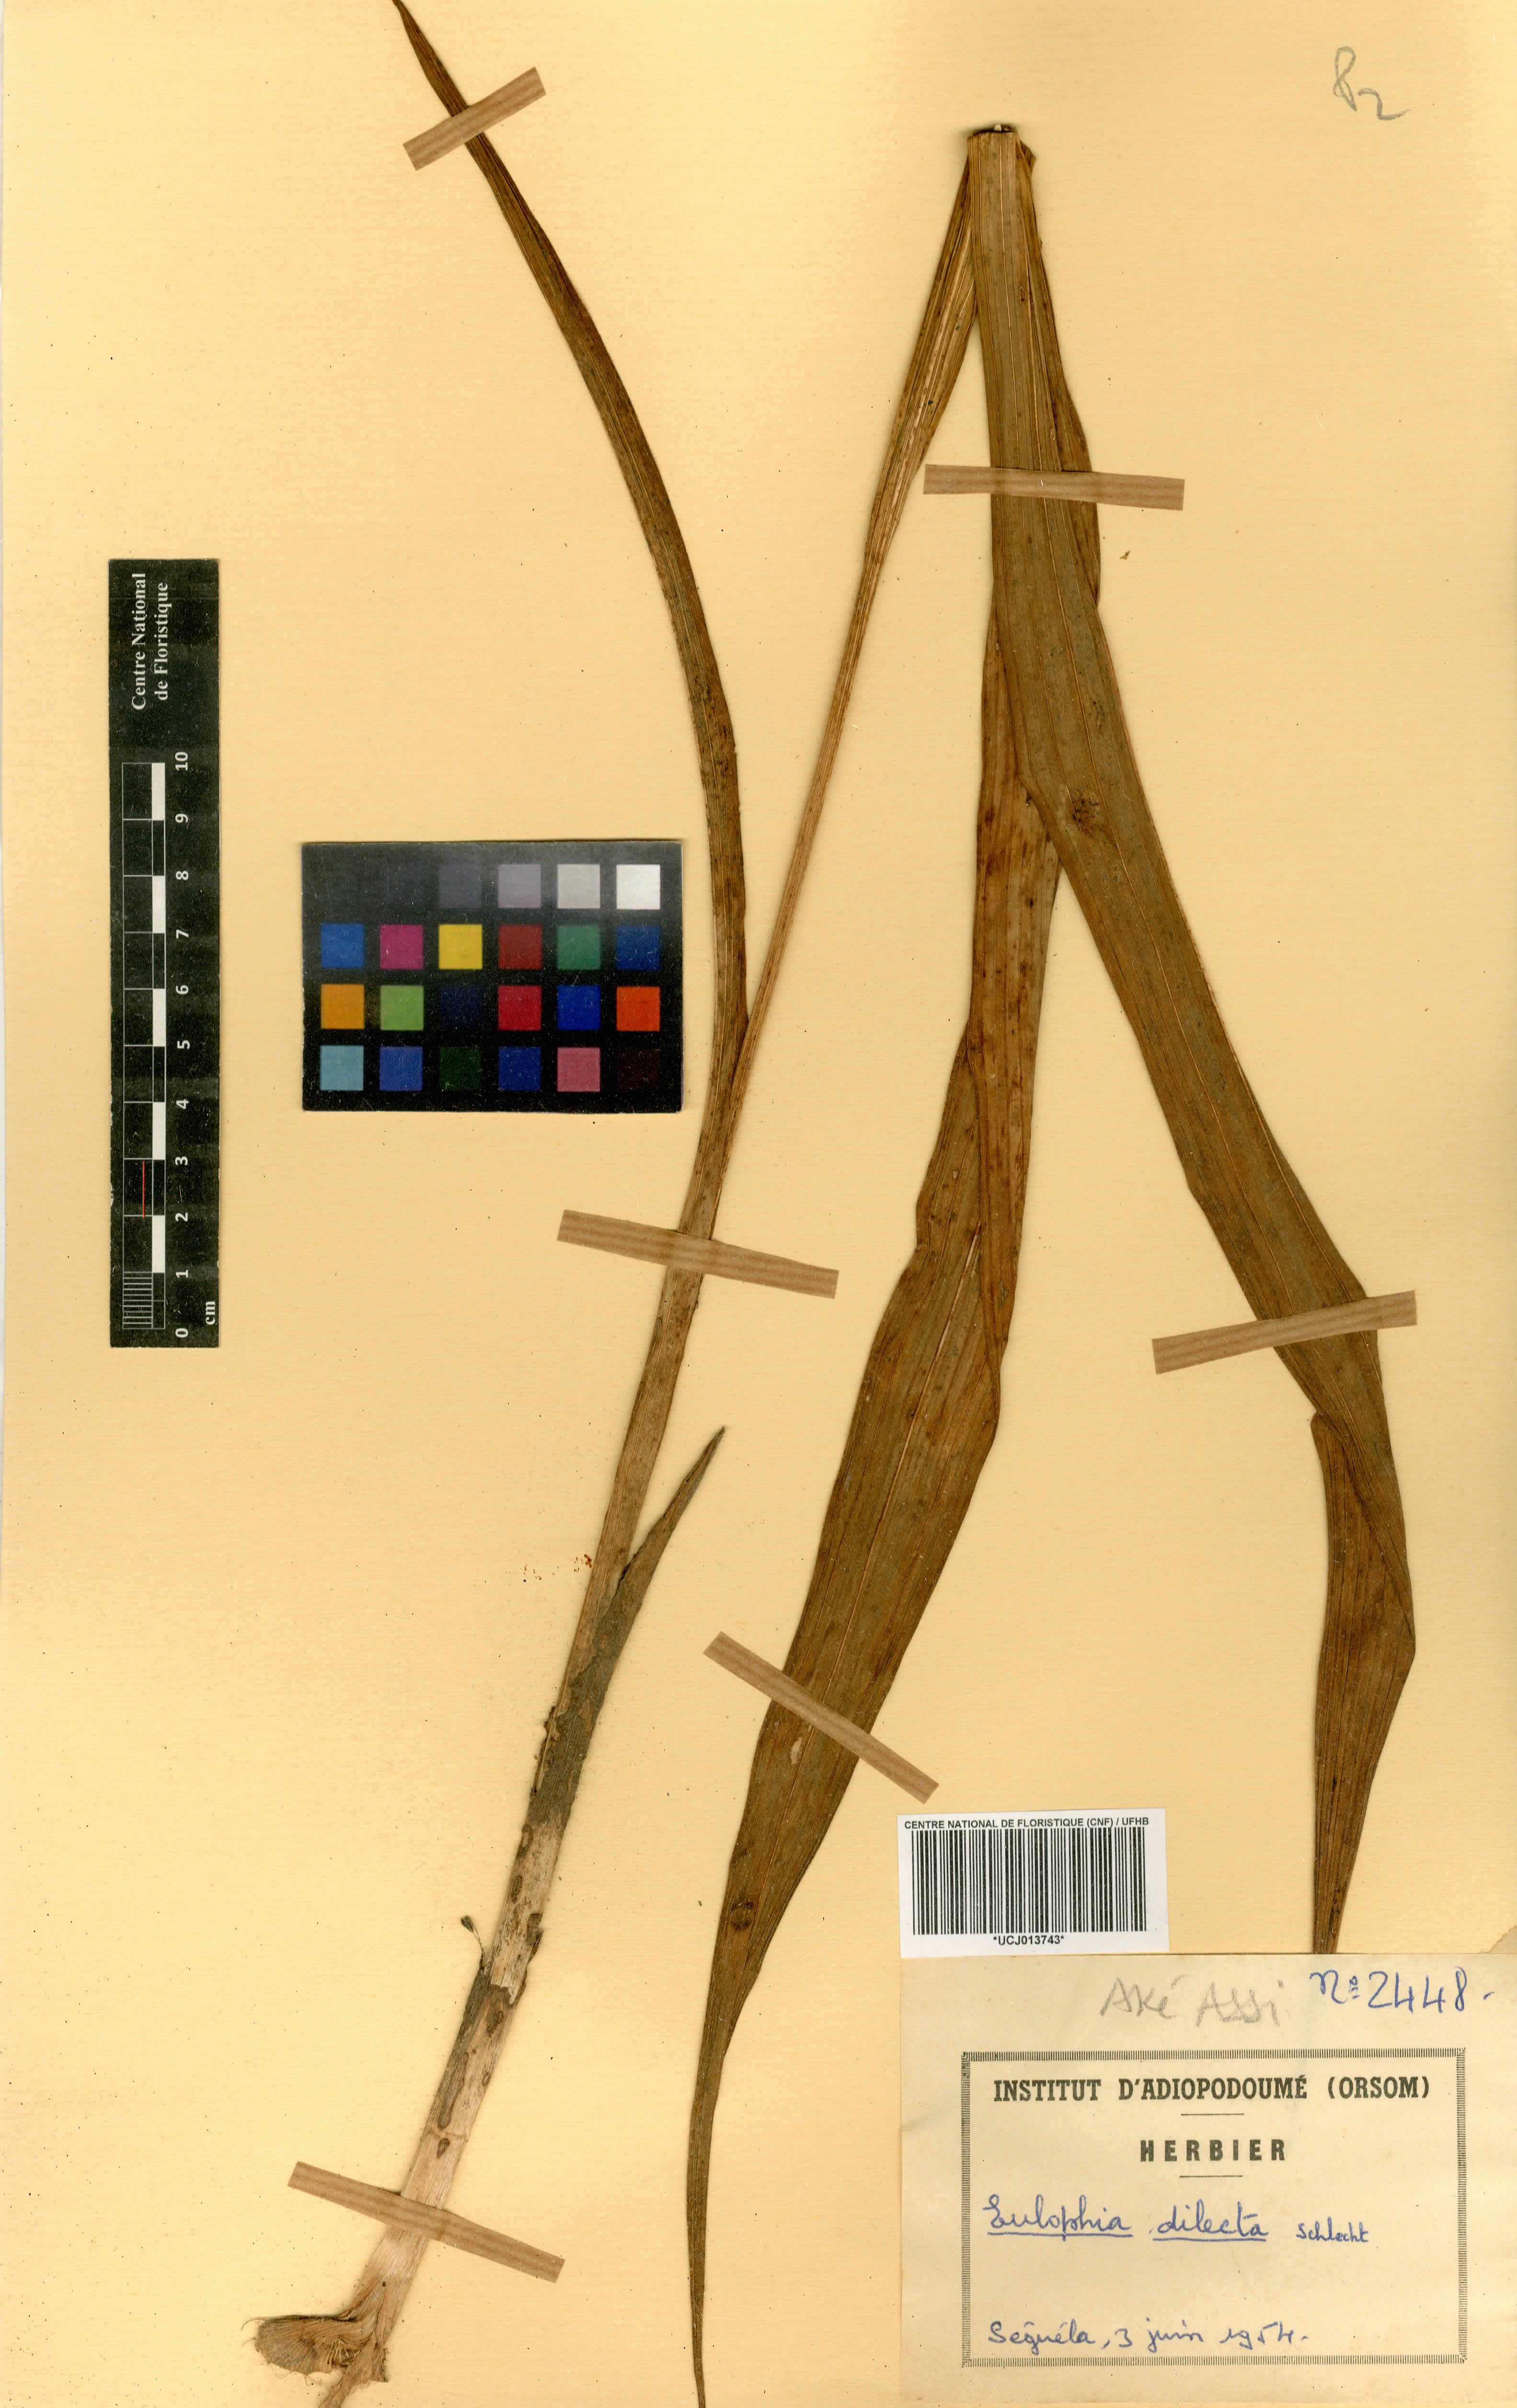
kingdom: Plantae
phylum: Tracheophyta
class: Liliopsida
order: Asparagales
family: Orchidaceae
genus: Eulophia
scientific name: Eulophia cucullata
